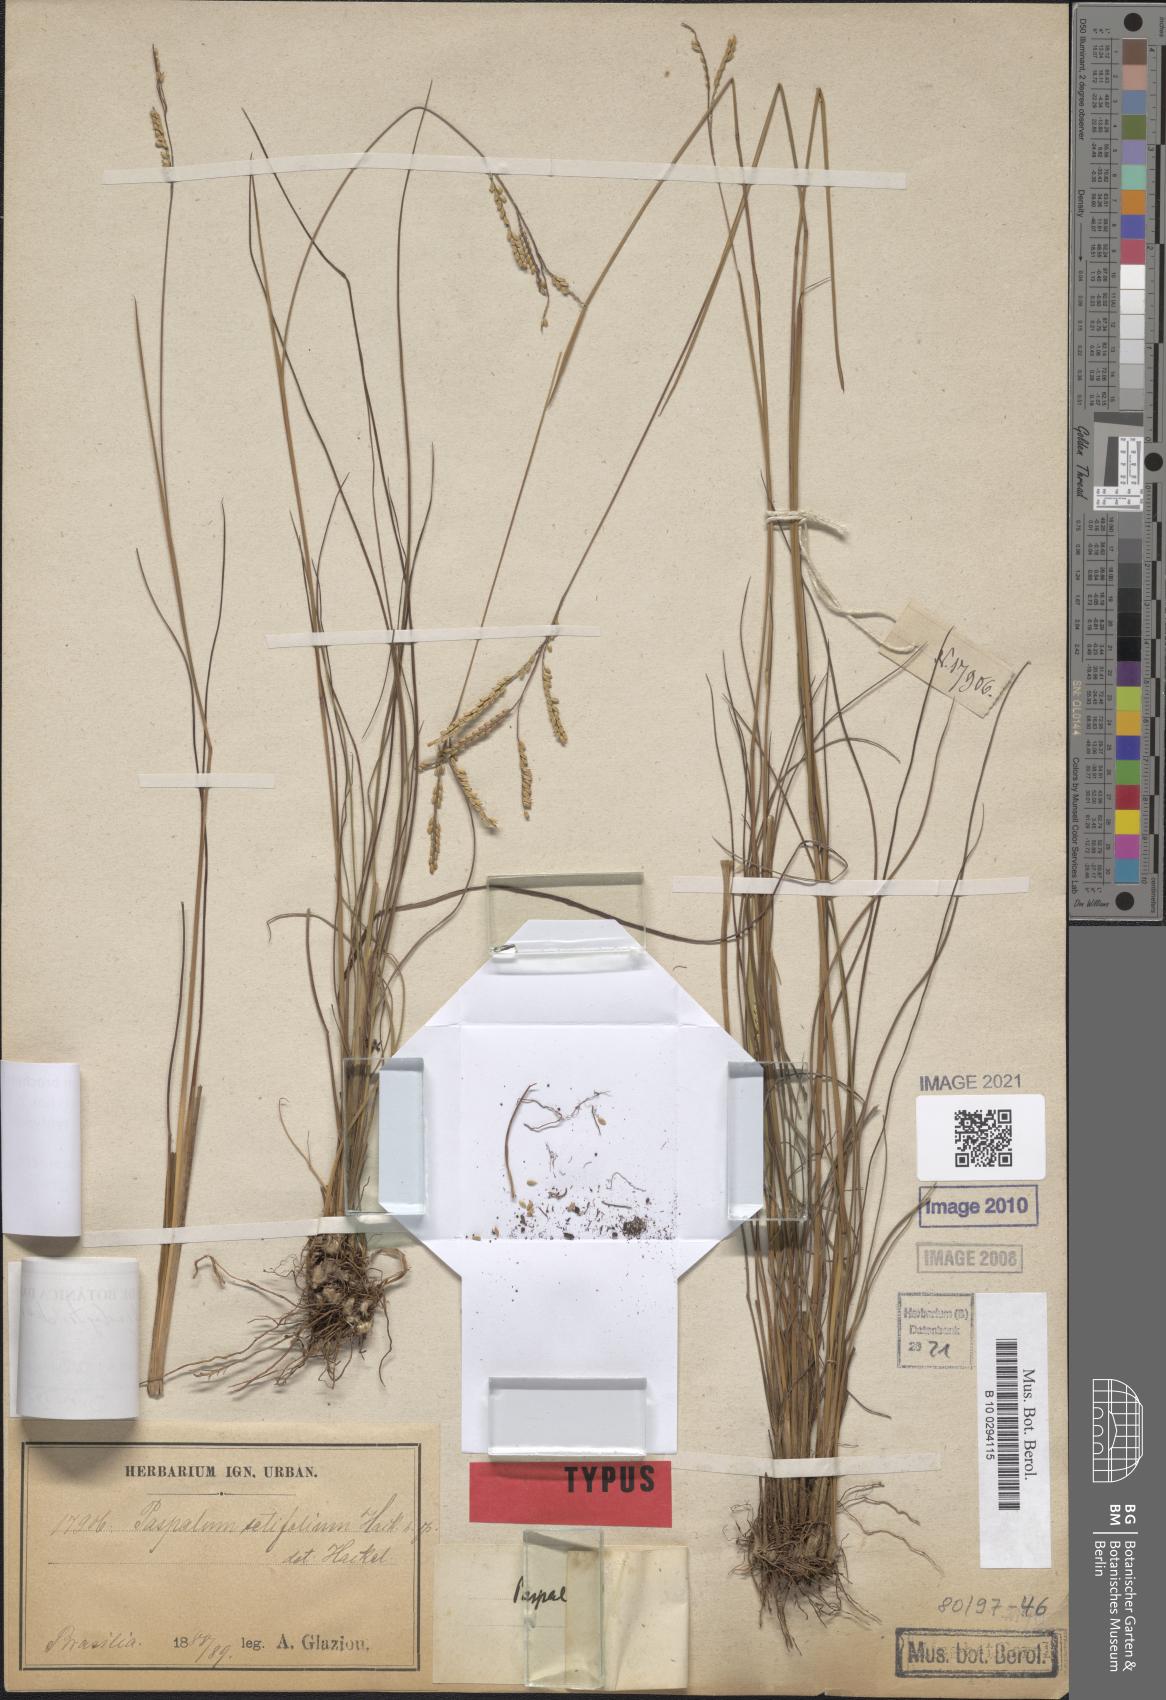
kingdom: Plantae
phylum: Tracheophyta
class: Liliopsida
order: Poales
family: Poaceae
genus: Paspalum
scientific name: Paspalum brachytrichum
